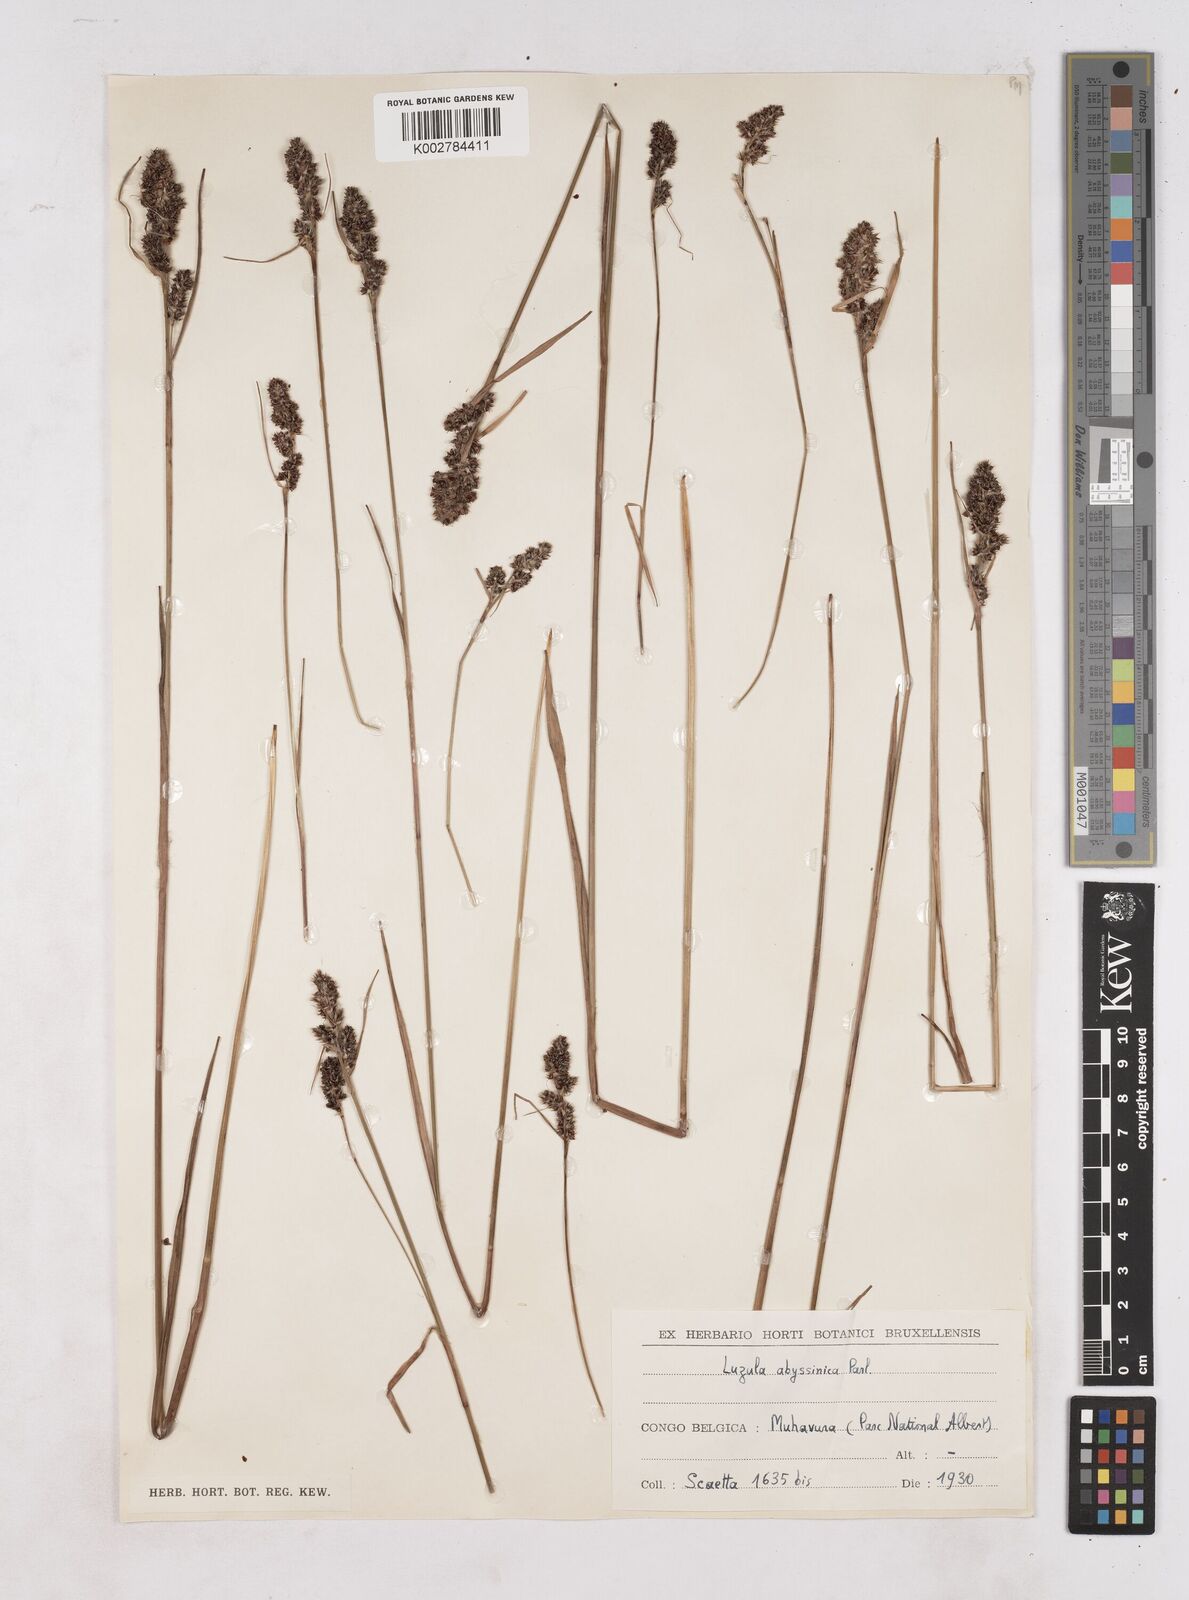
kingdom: Plantae
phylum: Tracheophyta
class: Liliopsida
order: Poales
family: Juncaceae
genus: Luzula
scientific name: Luzula abyssinica
